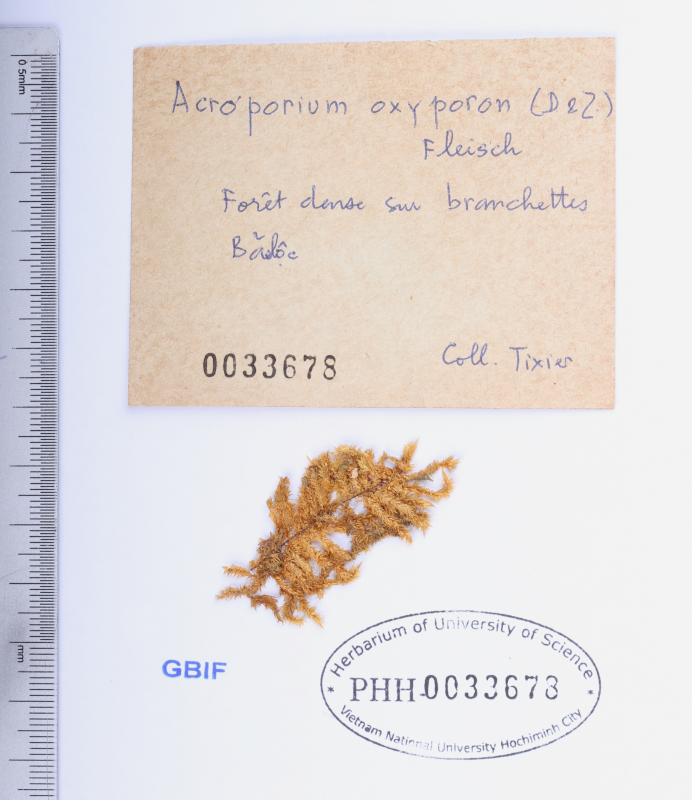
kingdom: Plantae
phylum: Bryophyta
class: Bryopsida
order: Hypnales
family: Sematophyllaceae
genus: Acroporium
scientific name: Acroporium lamprophyllum
